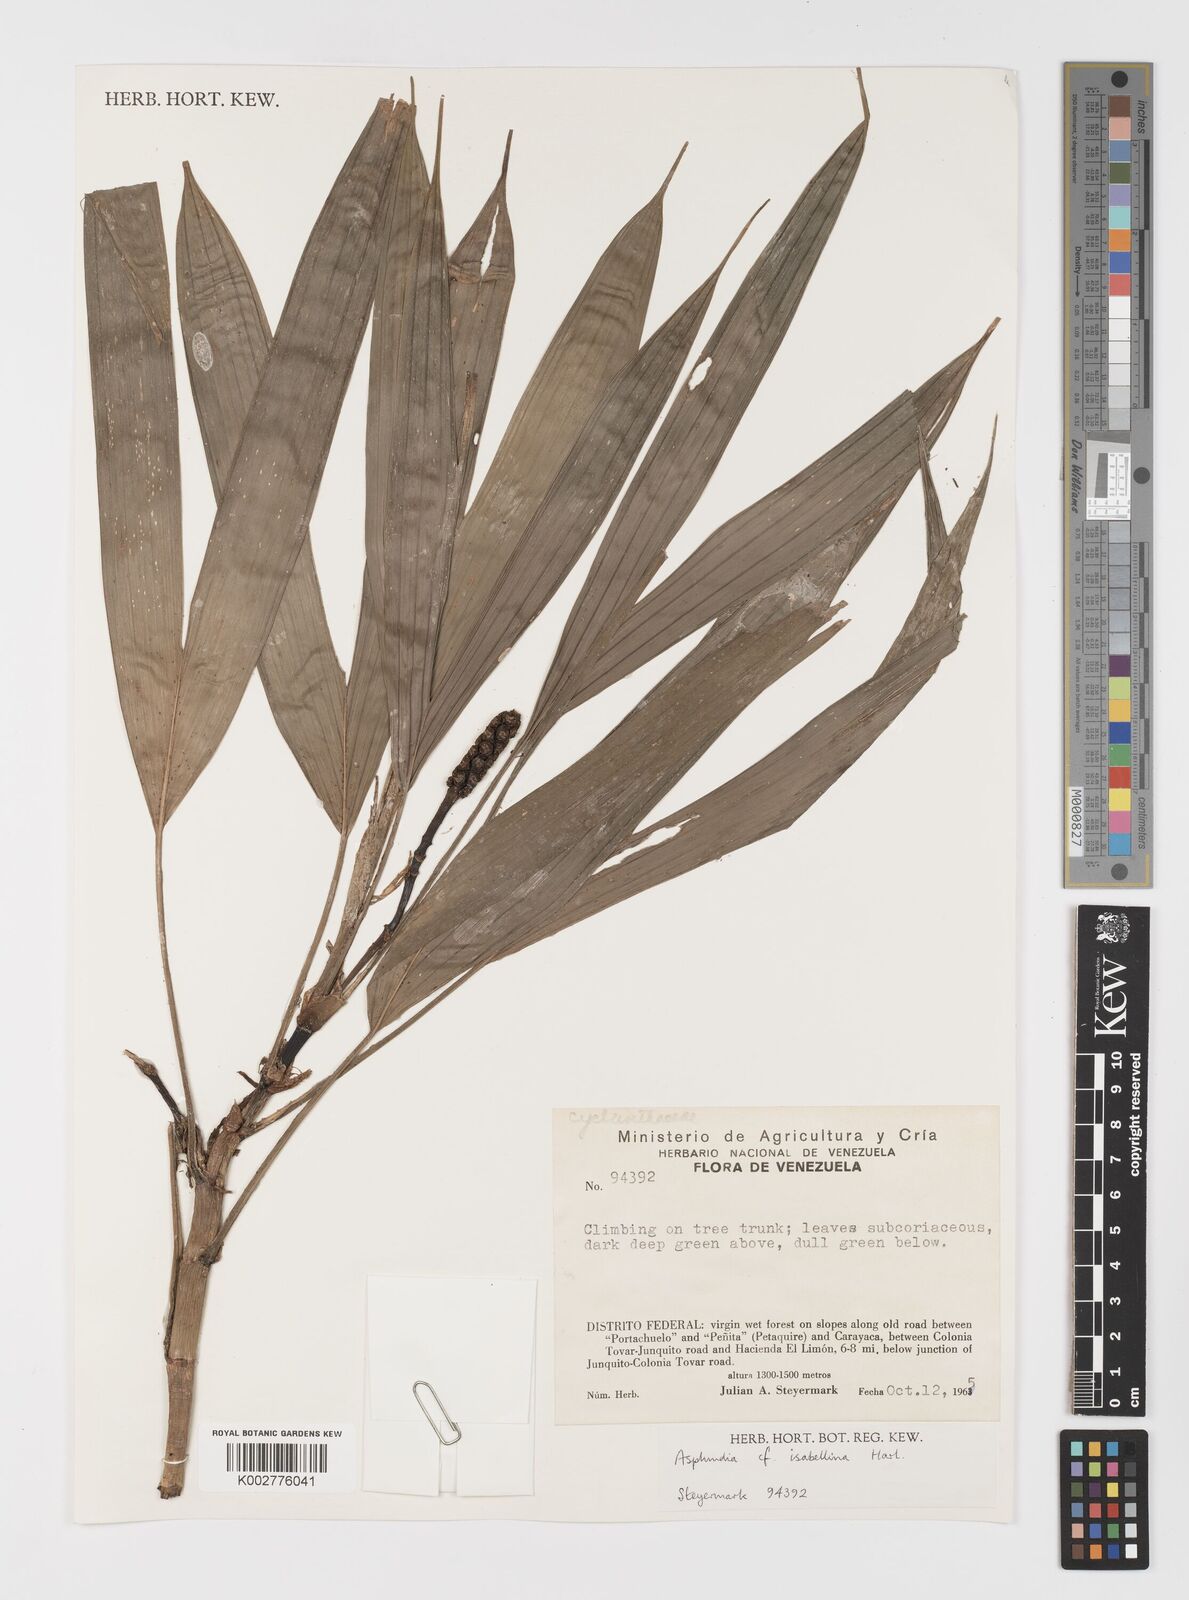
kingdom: Plantae
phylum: Tracheophyta
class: Liliopsida
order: Pandanales
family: Cyclanthaceae
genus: Asplundia
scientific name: Asplundia isabellina
